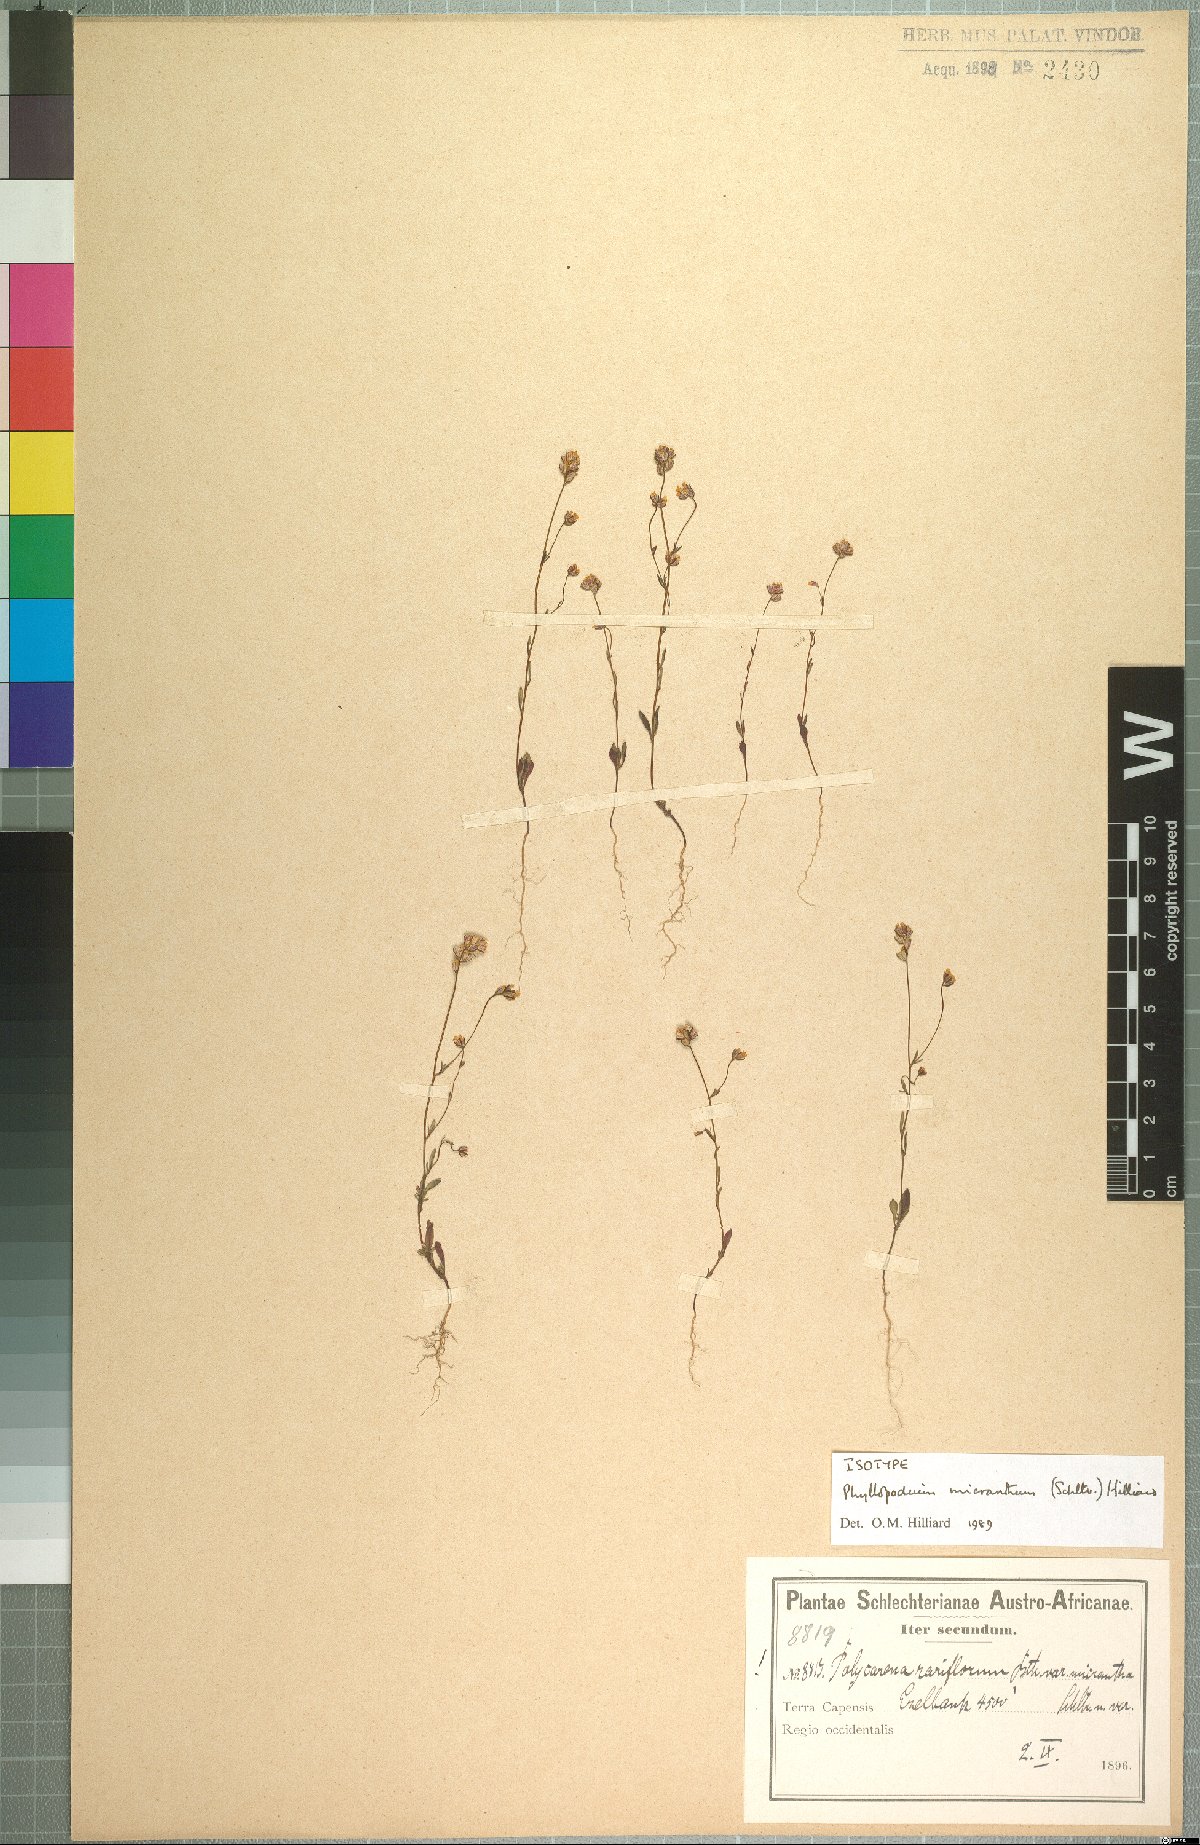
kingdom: Plantae
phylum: Tracheophyta
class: Magnoliopsida
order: Lamiales
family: Scrophulariaceae
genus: Phyllopodium
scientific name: Phyllopodium micranthum
